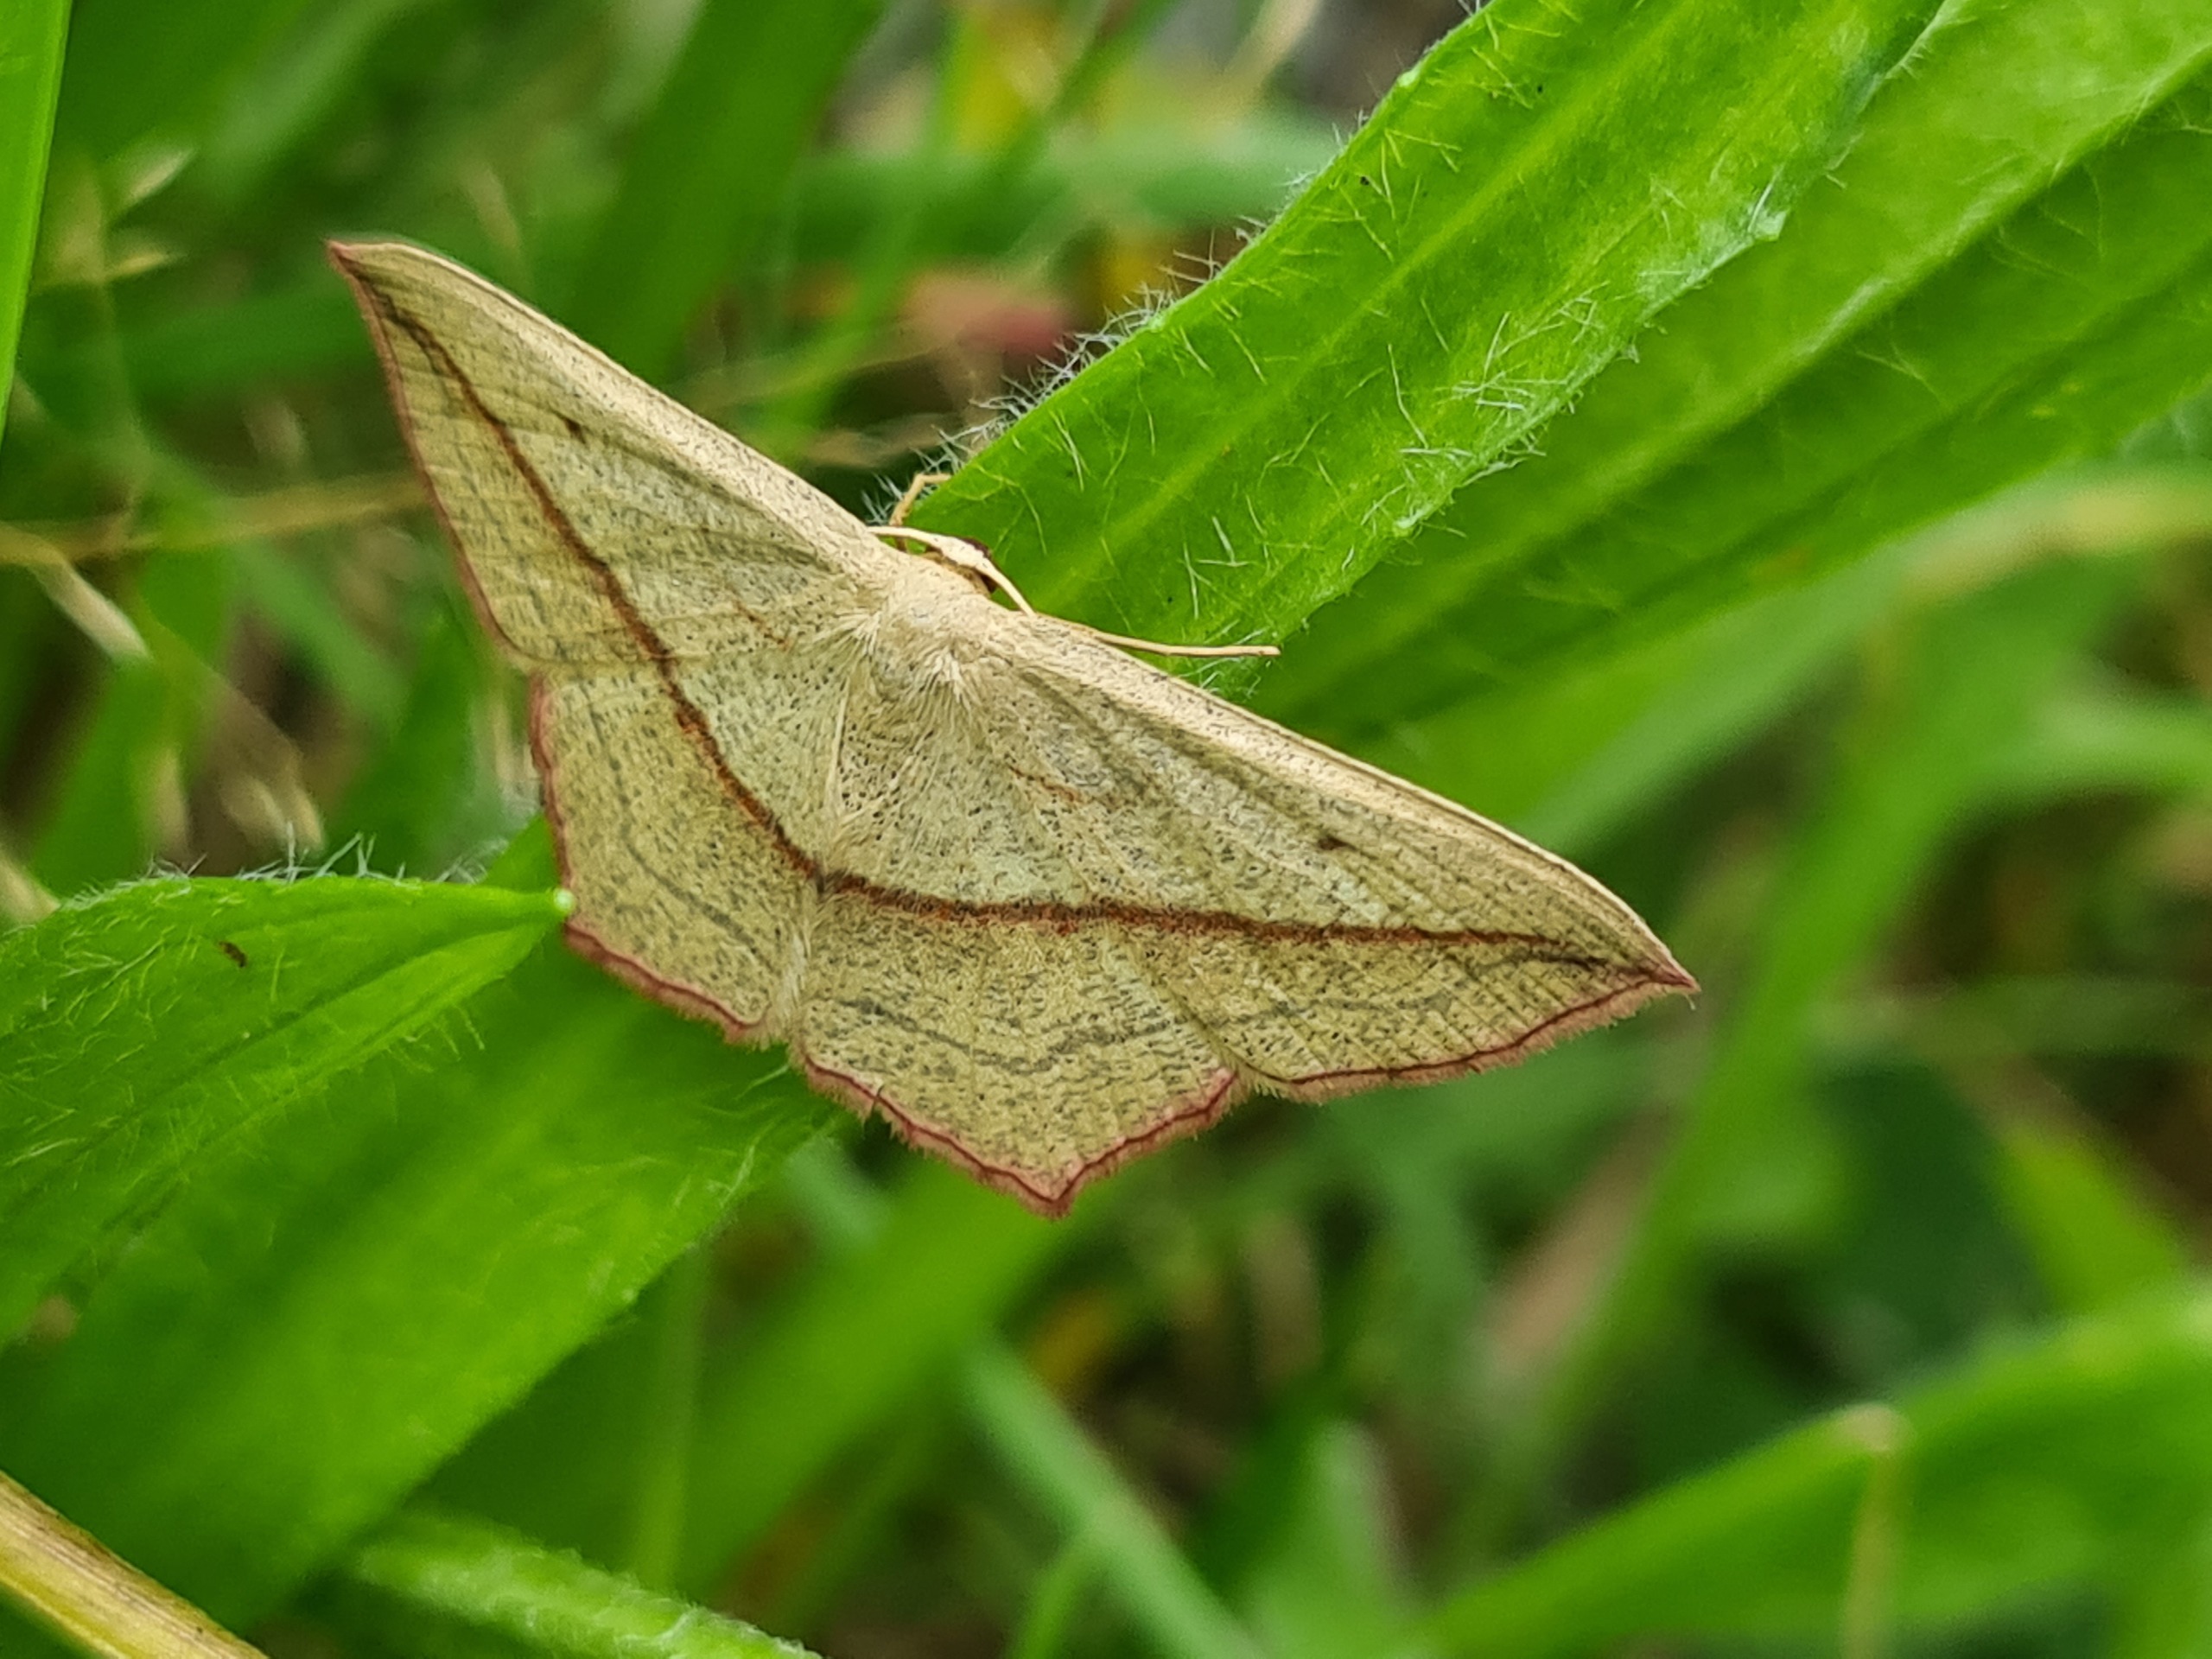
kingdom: Animalia
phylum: Arthropoda
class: Insecta
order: Lepidoptera
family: Geometridae
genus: Timandra
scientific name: Timandra comae
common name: Gul syremåler
